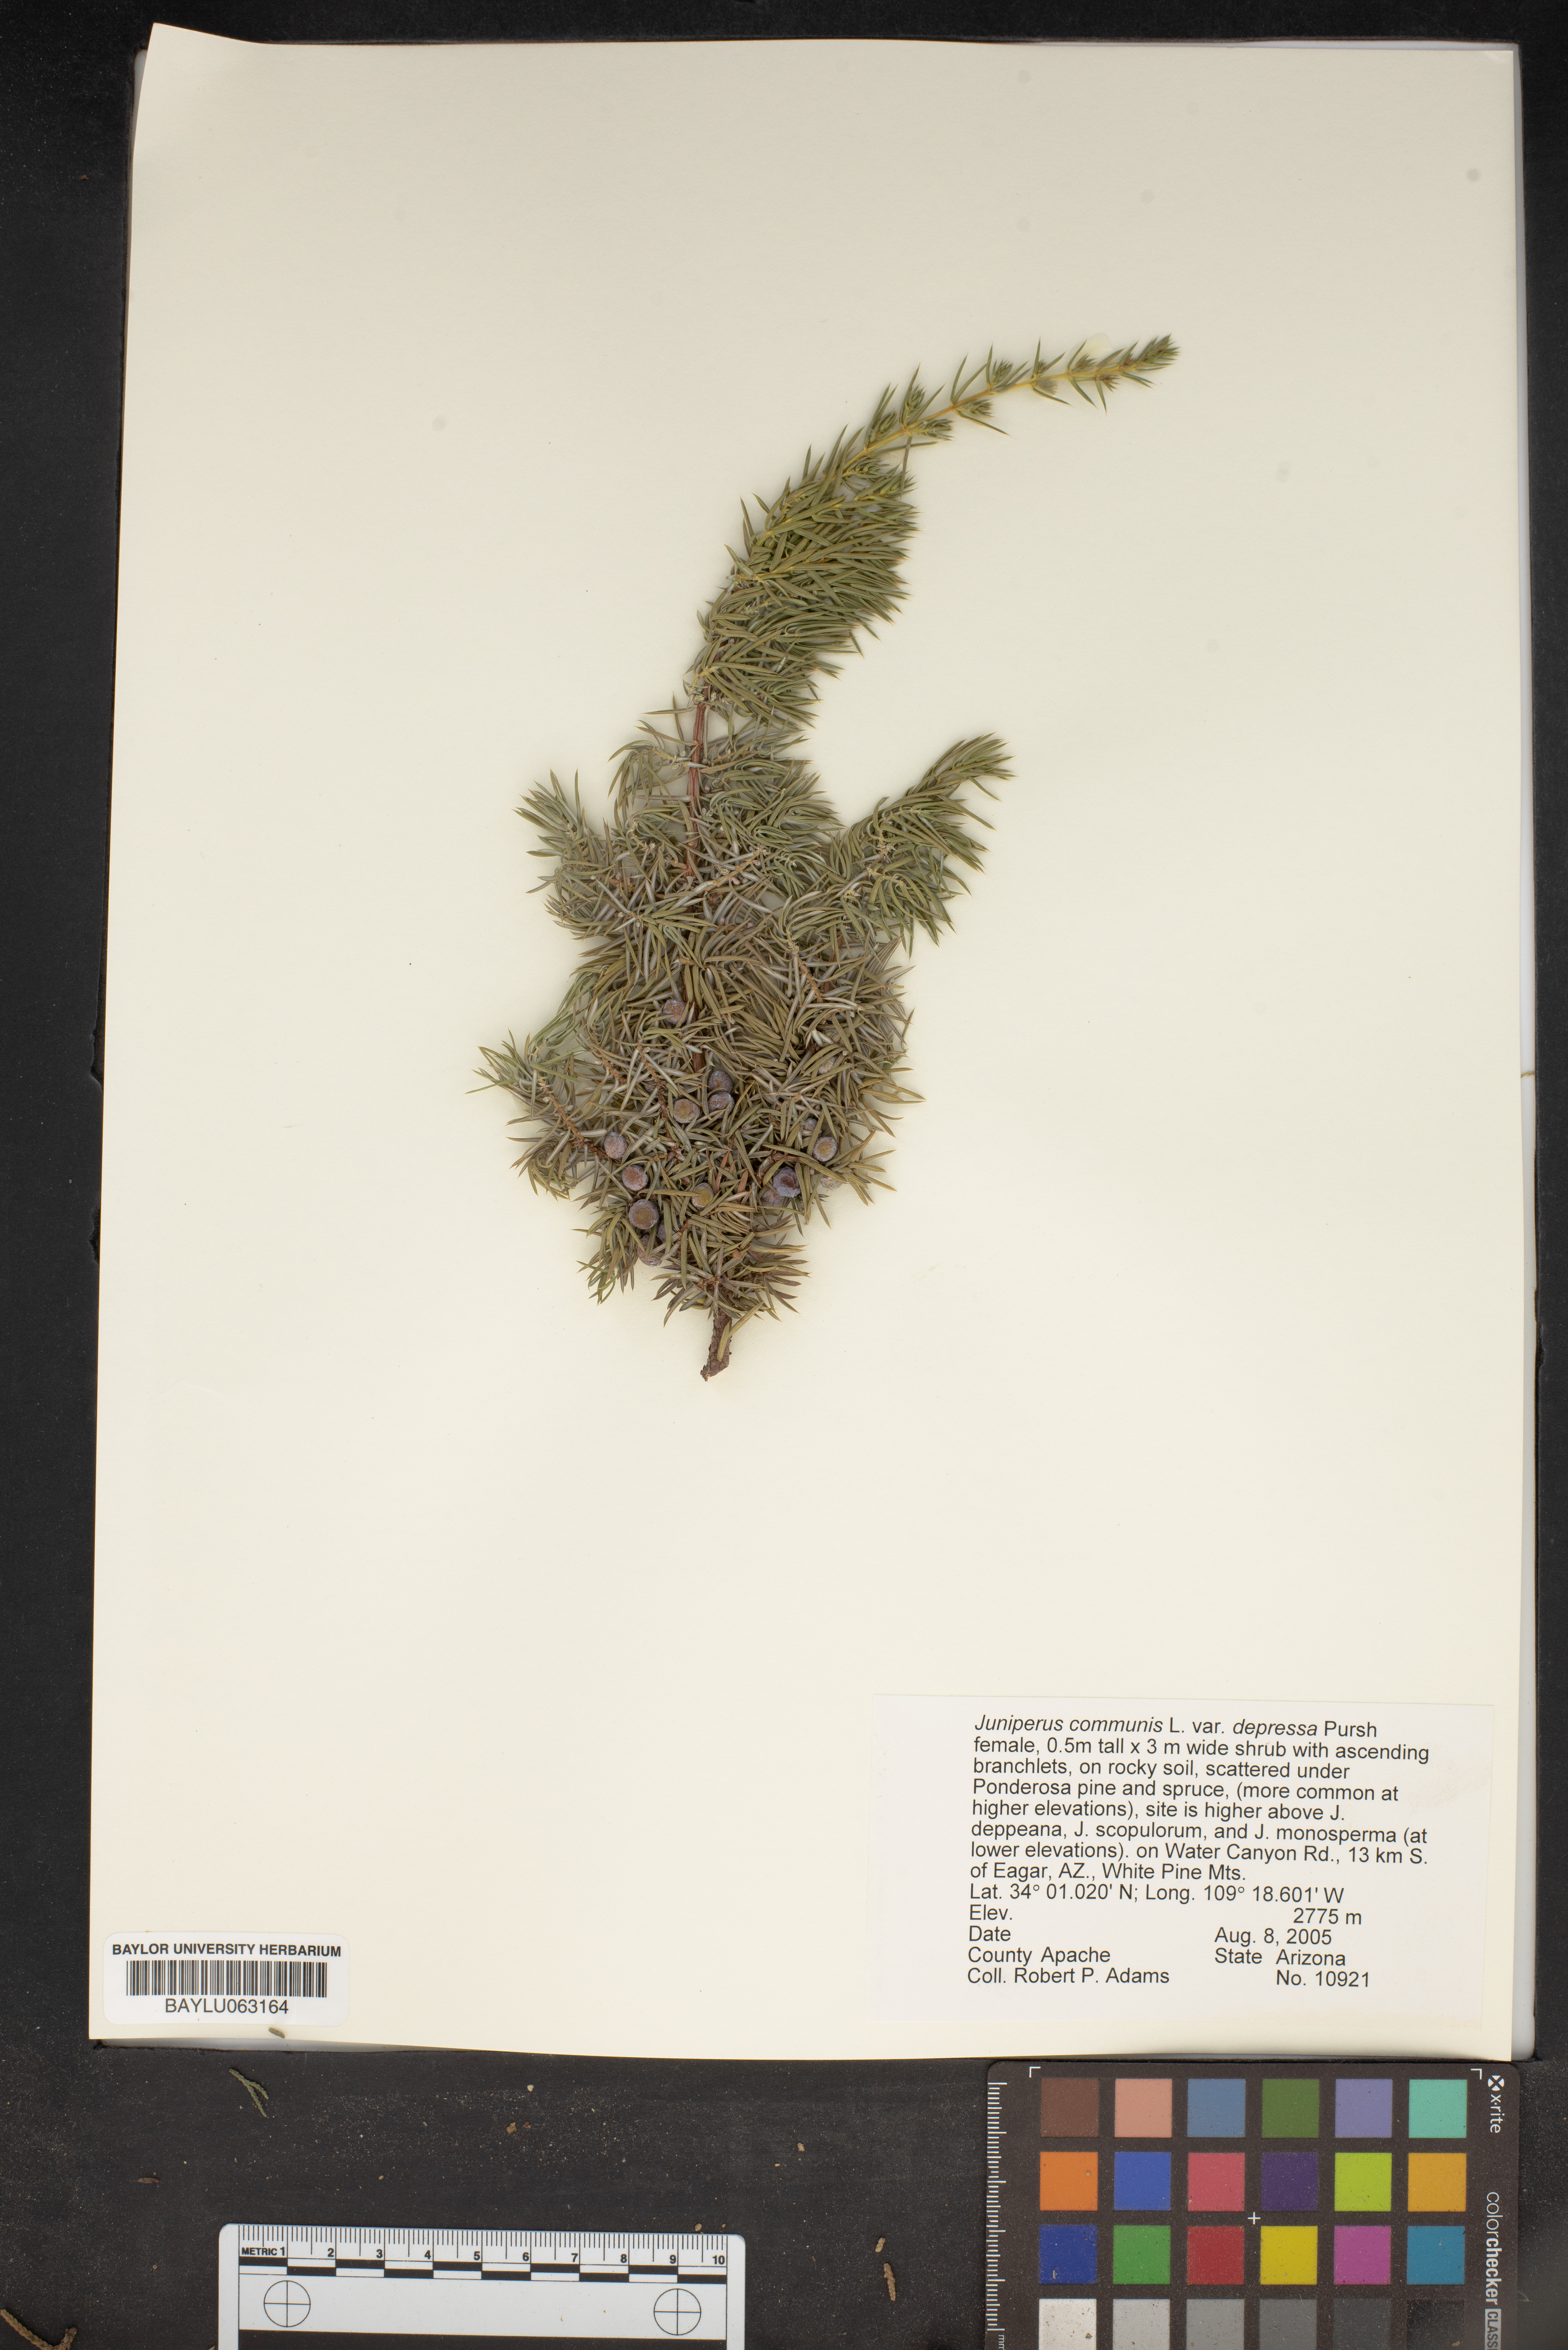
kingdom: Plantae
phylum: Tracheophyta
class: Pinopsida
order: Pinales
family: Cupressaceae
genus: Juniperus
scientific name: Juniperus communis
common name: Common juniper
